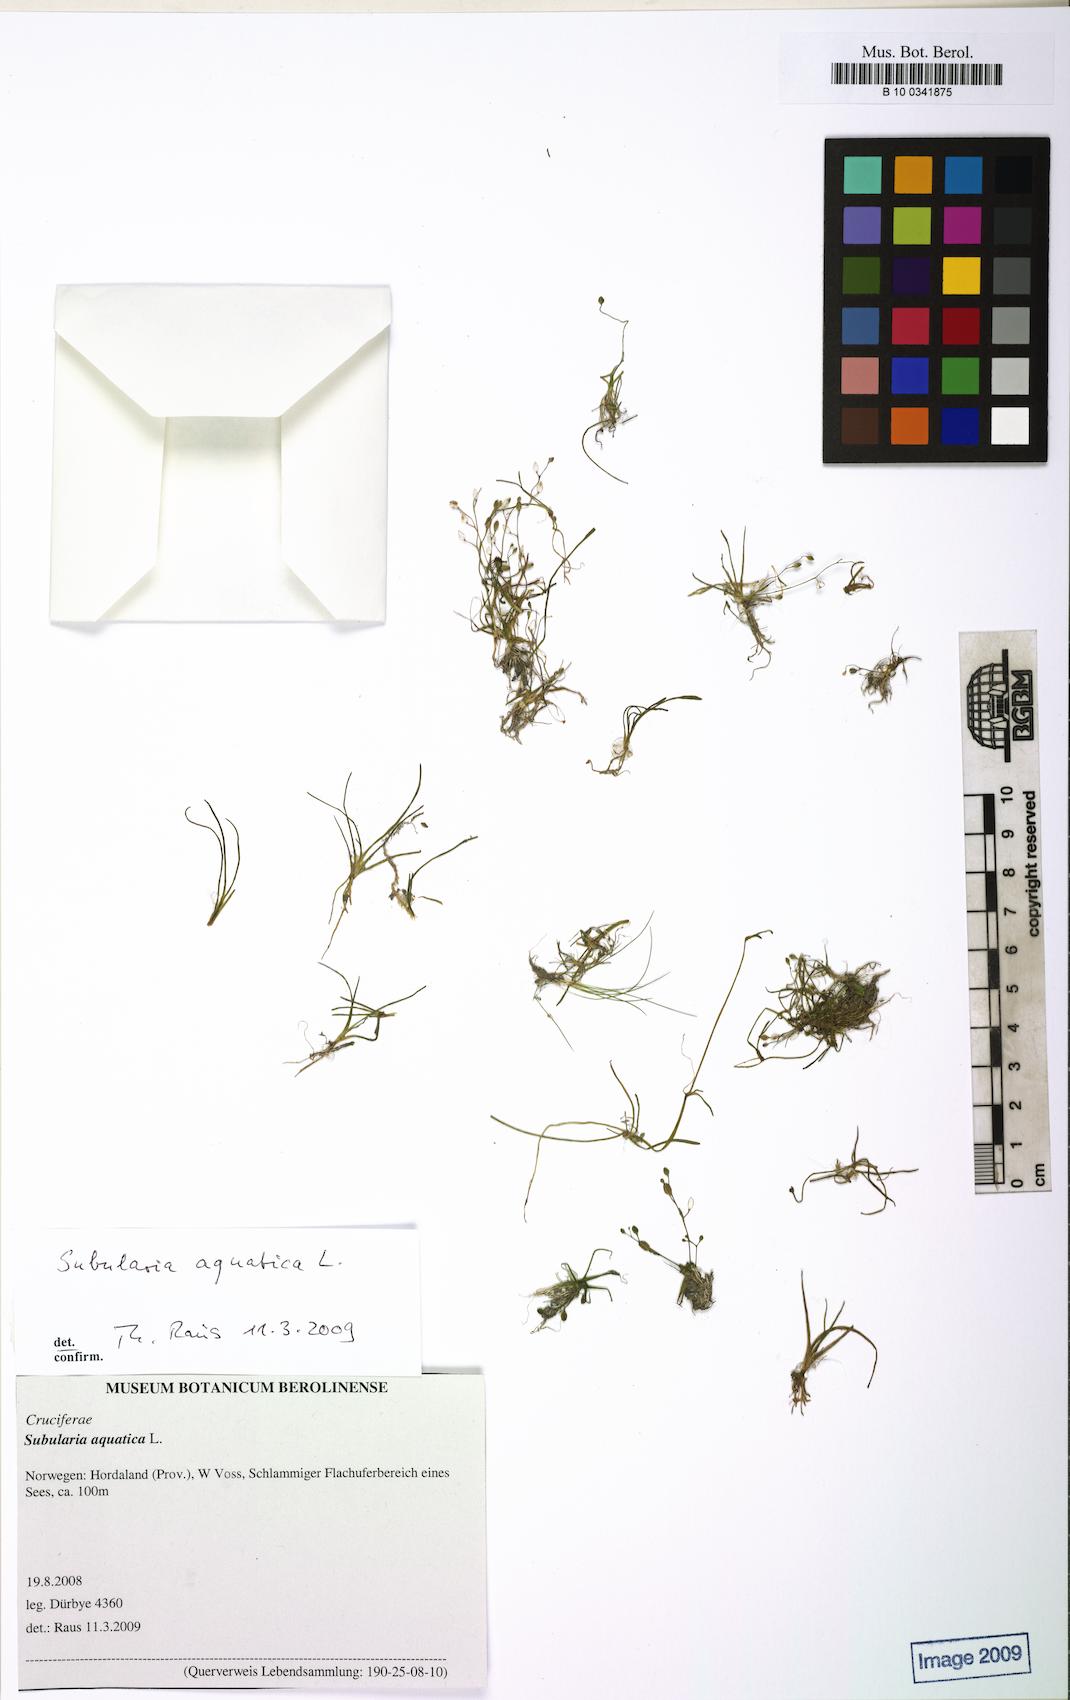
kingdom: Plantae
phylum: Tracheophyta
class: Magnoliopsida
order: Brassicales
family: Brassicaceae
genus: Subularia
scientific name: Subularia aquatica
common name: Awlwort
